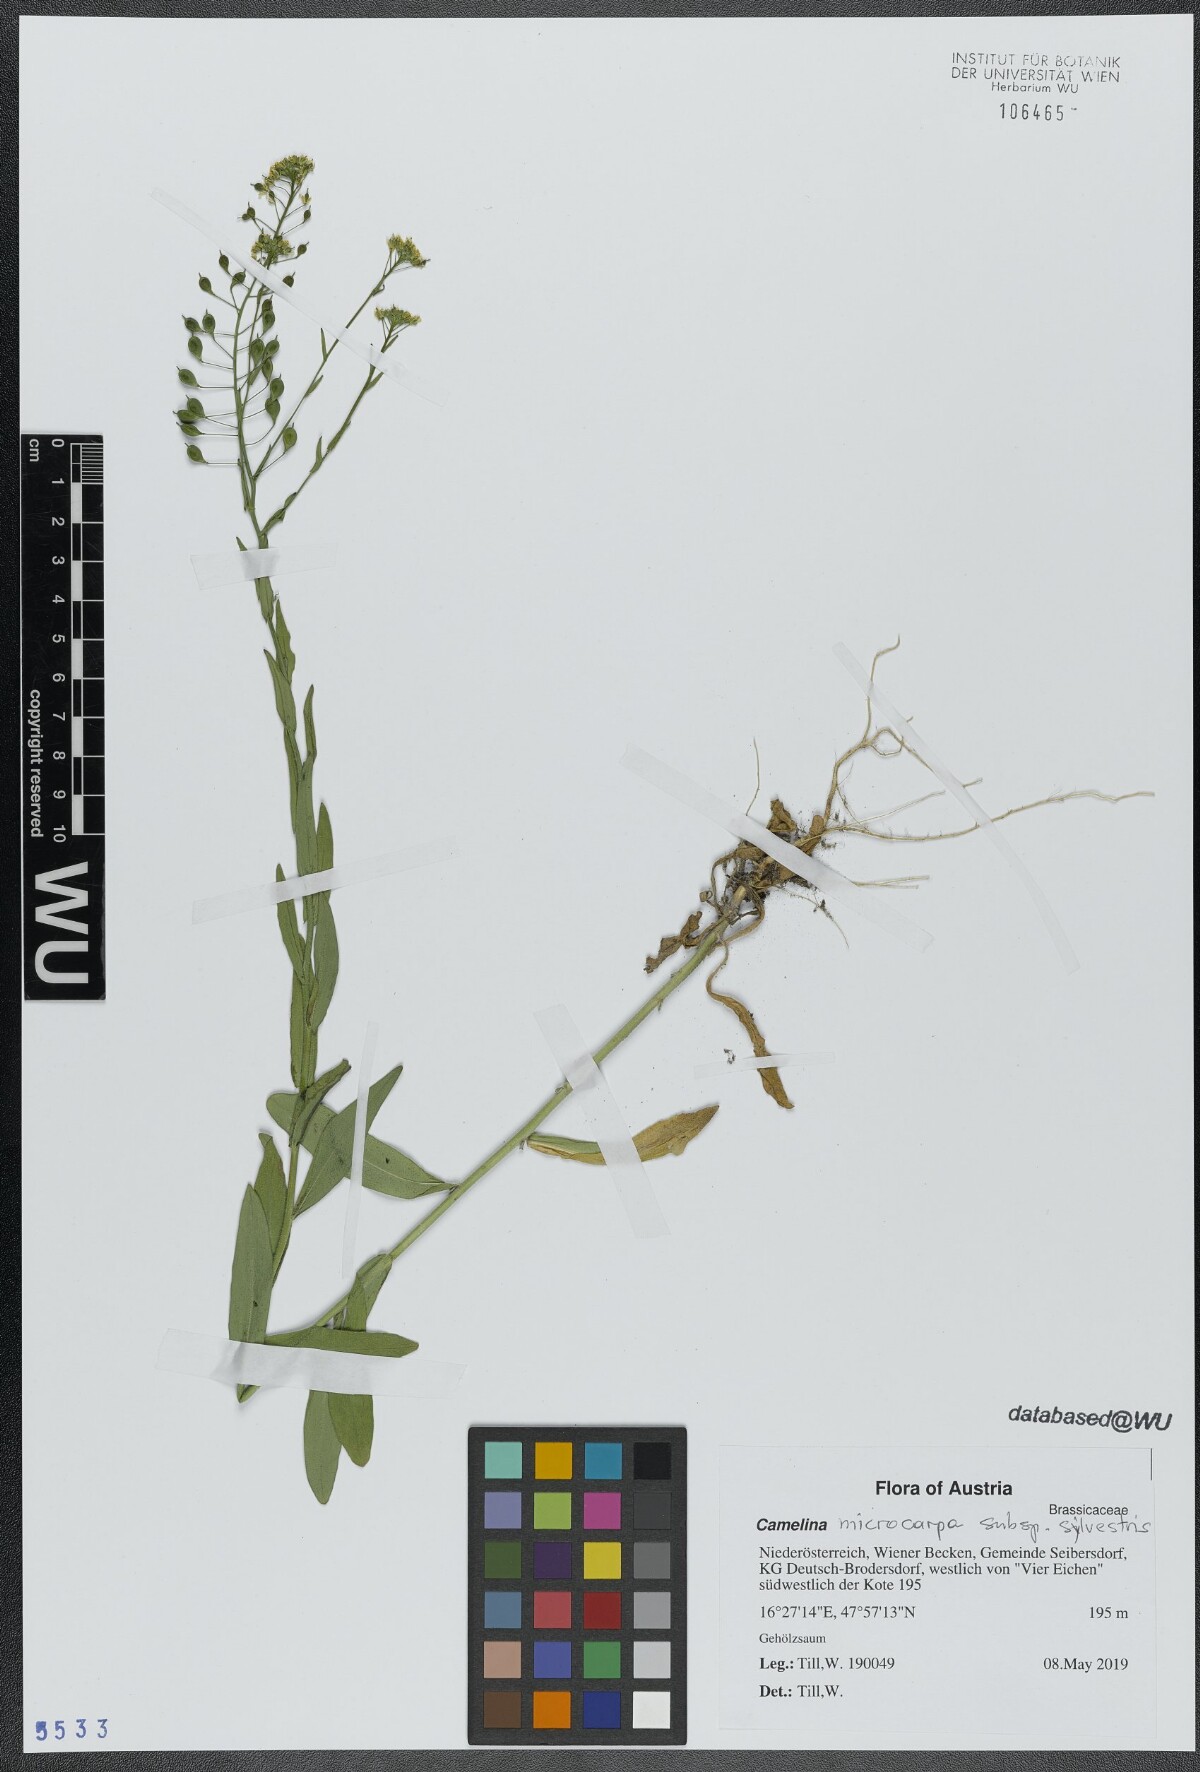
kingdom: Plantae
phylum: Tracheophyta
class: Magnoliopsida
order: Brassicales
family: Brassicaceae
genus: Camelina
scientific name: Camelina microcarpa
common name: Lesser gold-of-pleasure
